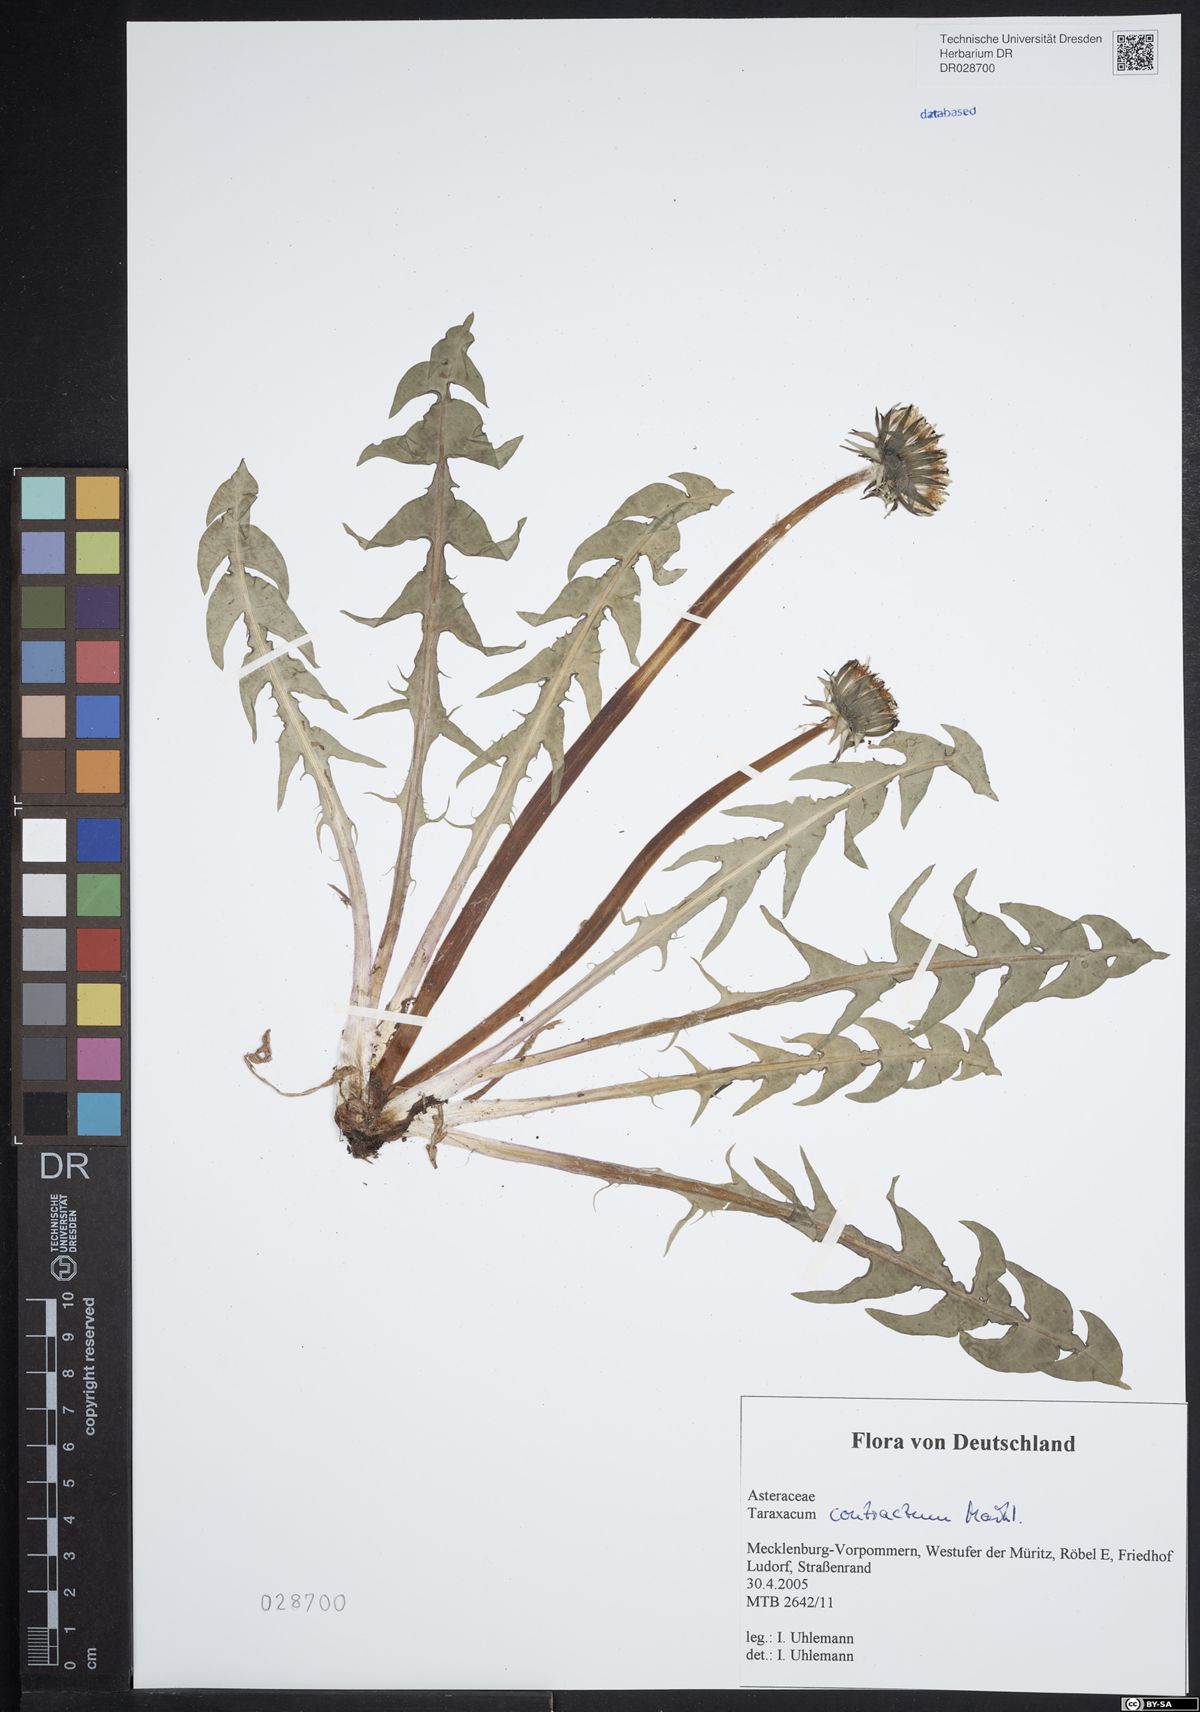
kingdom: Plantae
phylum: Tracheophyta
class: Magnoliopsida
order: Asterales
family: Asteraceae
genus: Taraxacum
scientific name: Taraxacum contractum
